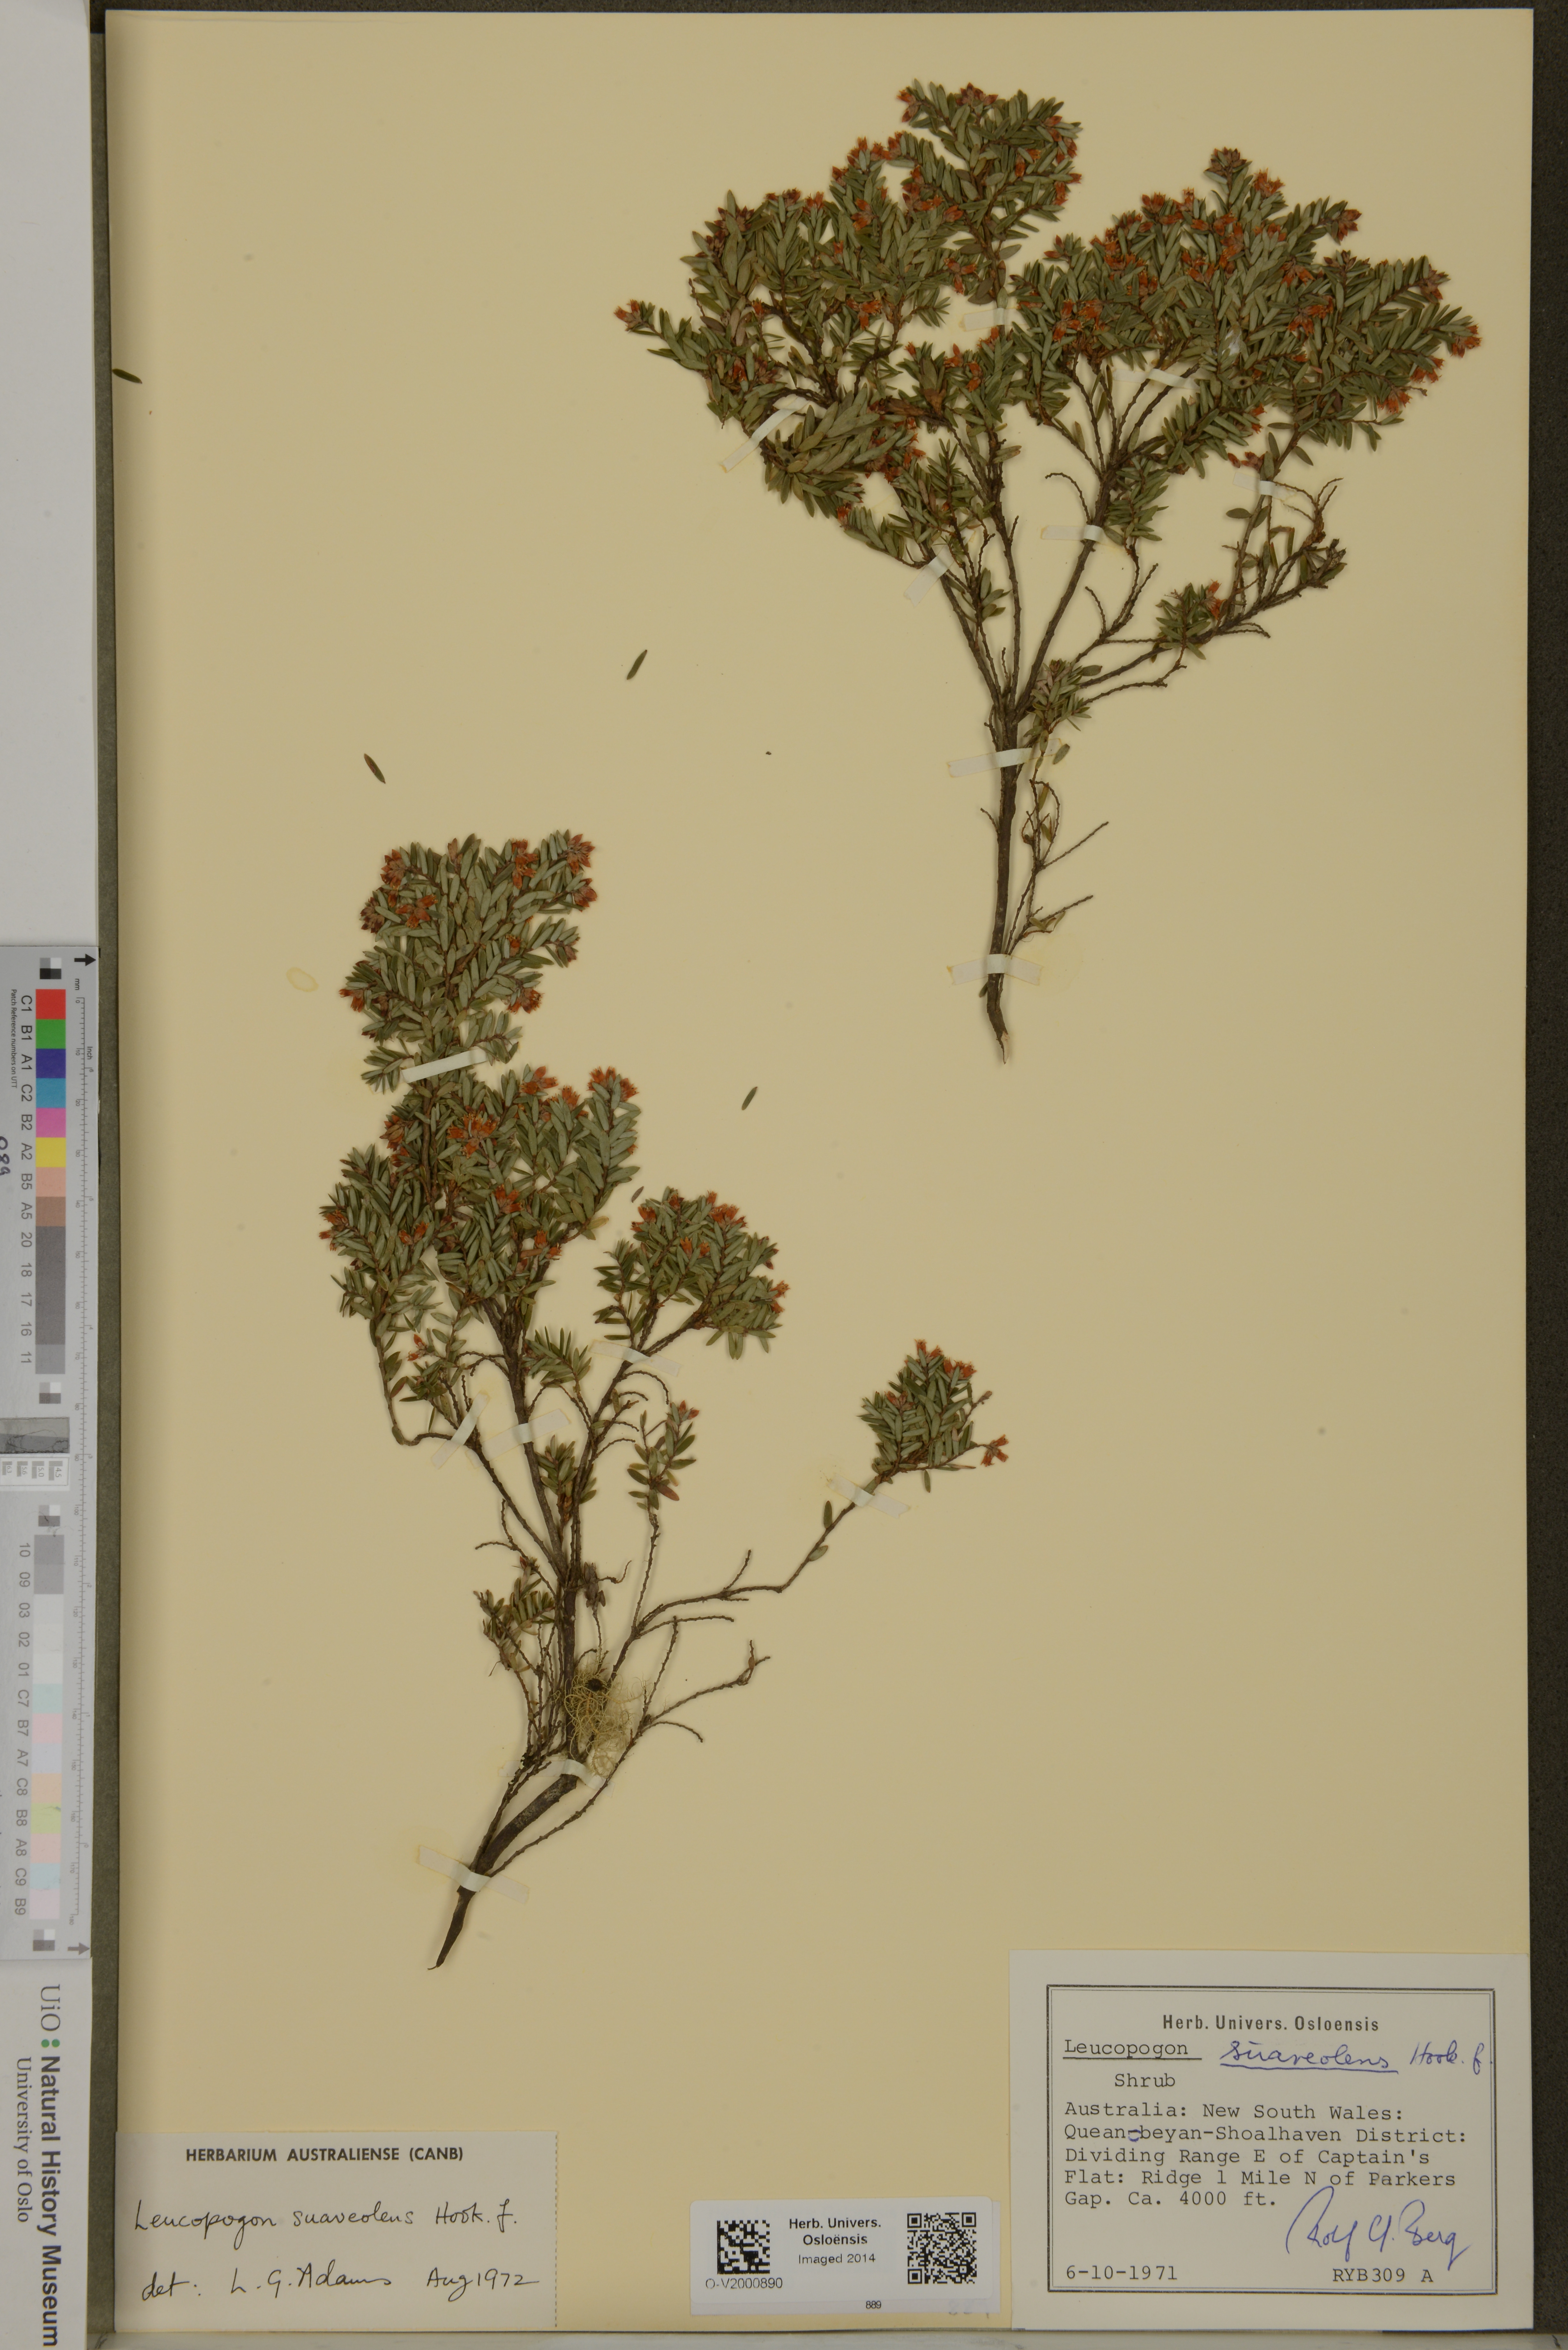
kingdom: Plantae
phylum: Tracheophyta
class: Magnoliopsida
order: Ericales
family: Ericaceae
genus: Acrothamnus
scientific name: Acrothamnus suaveolens
